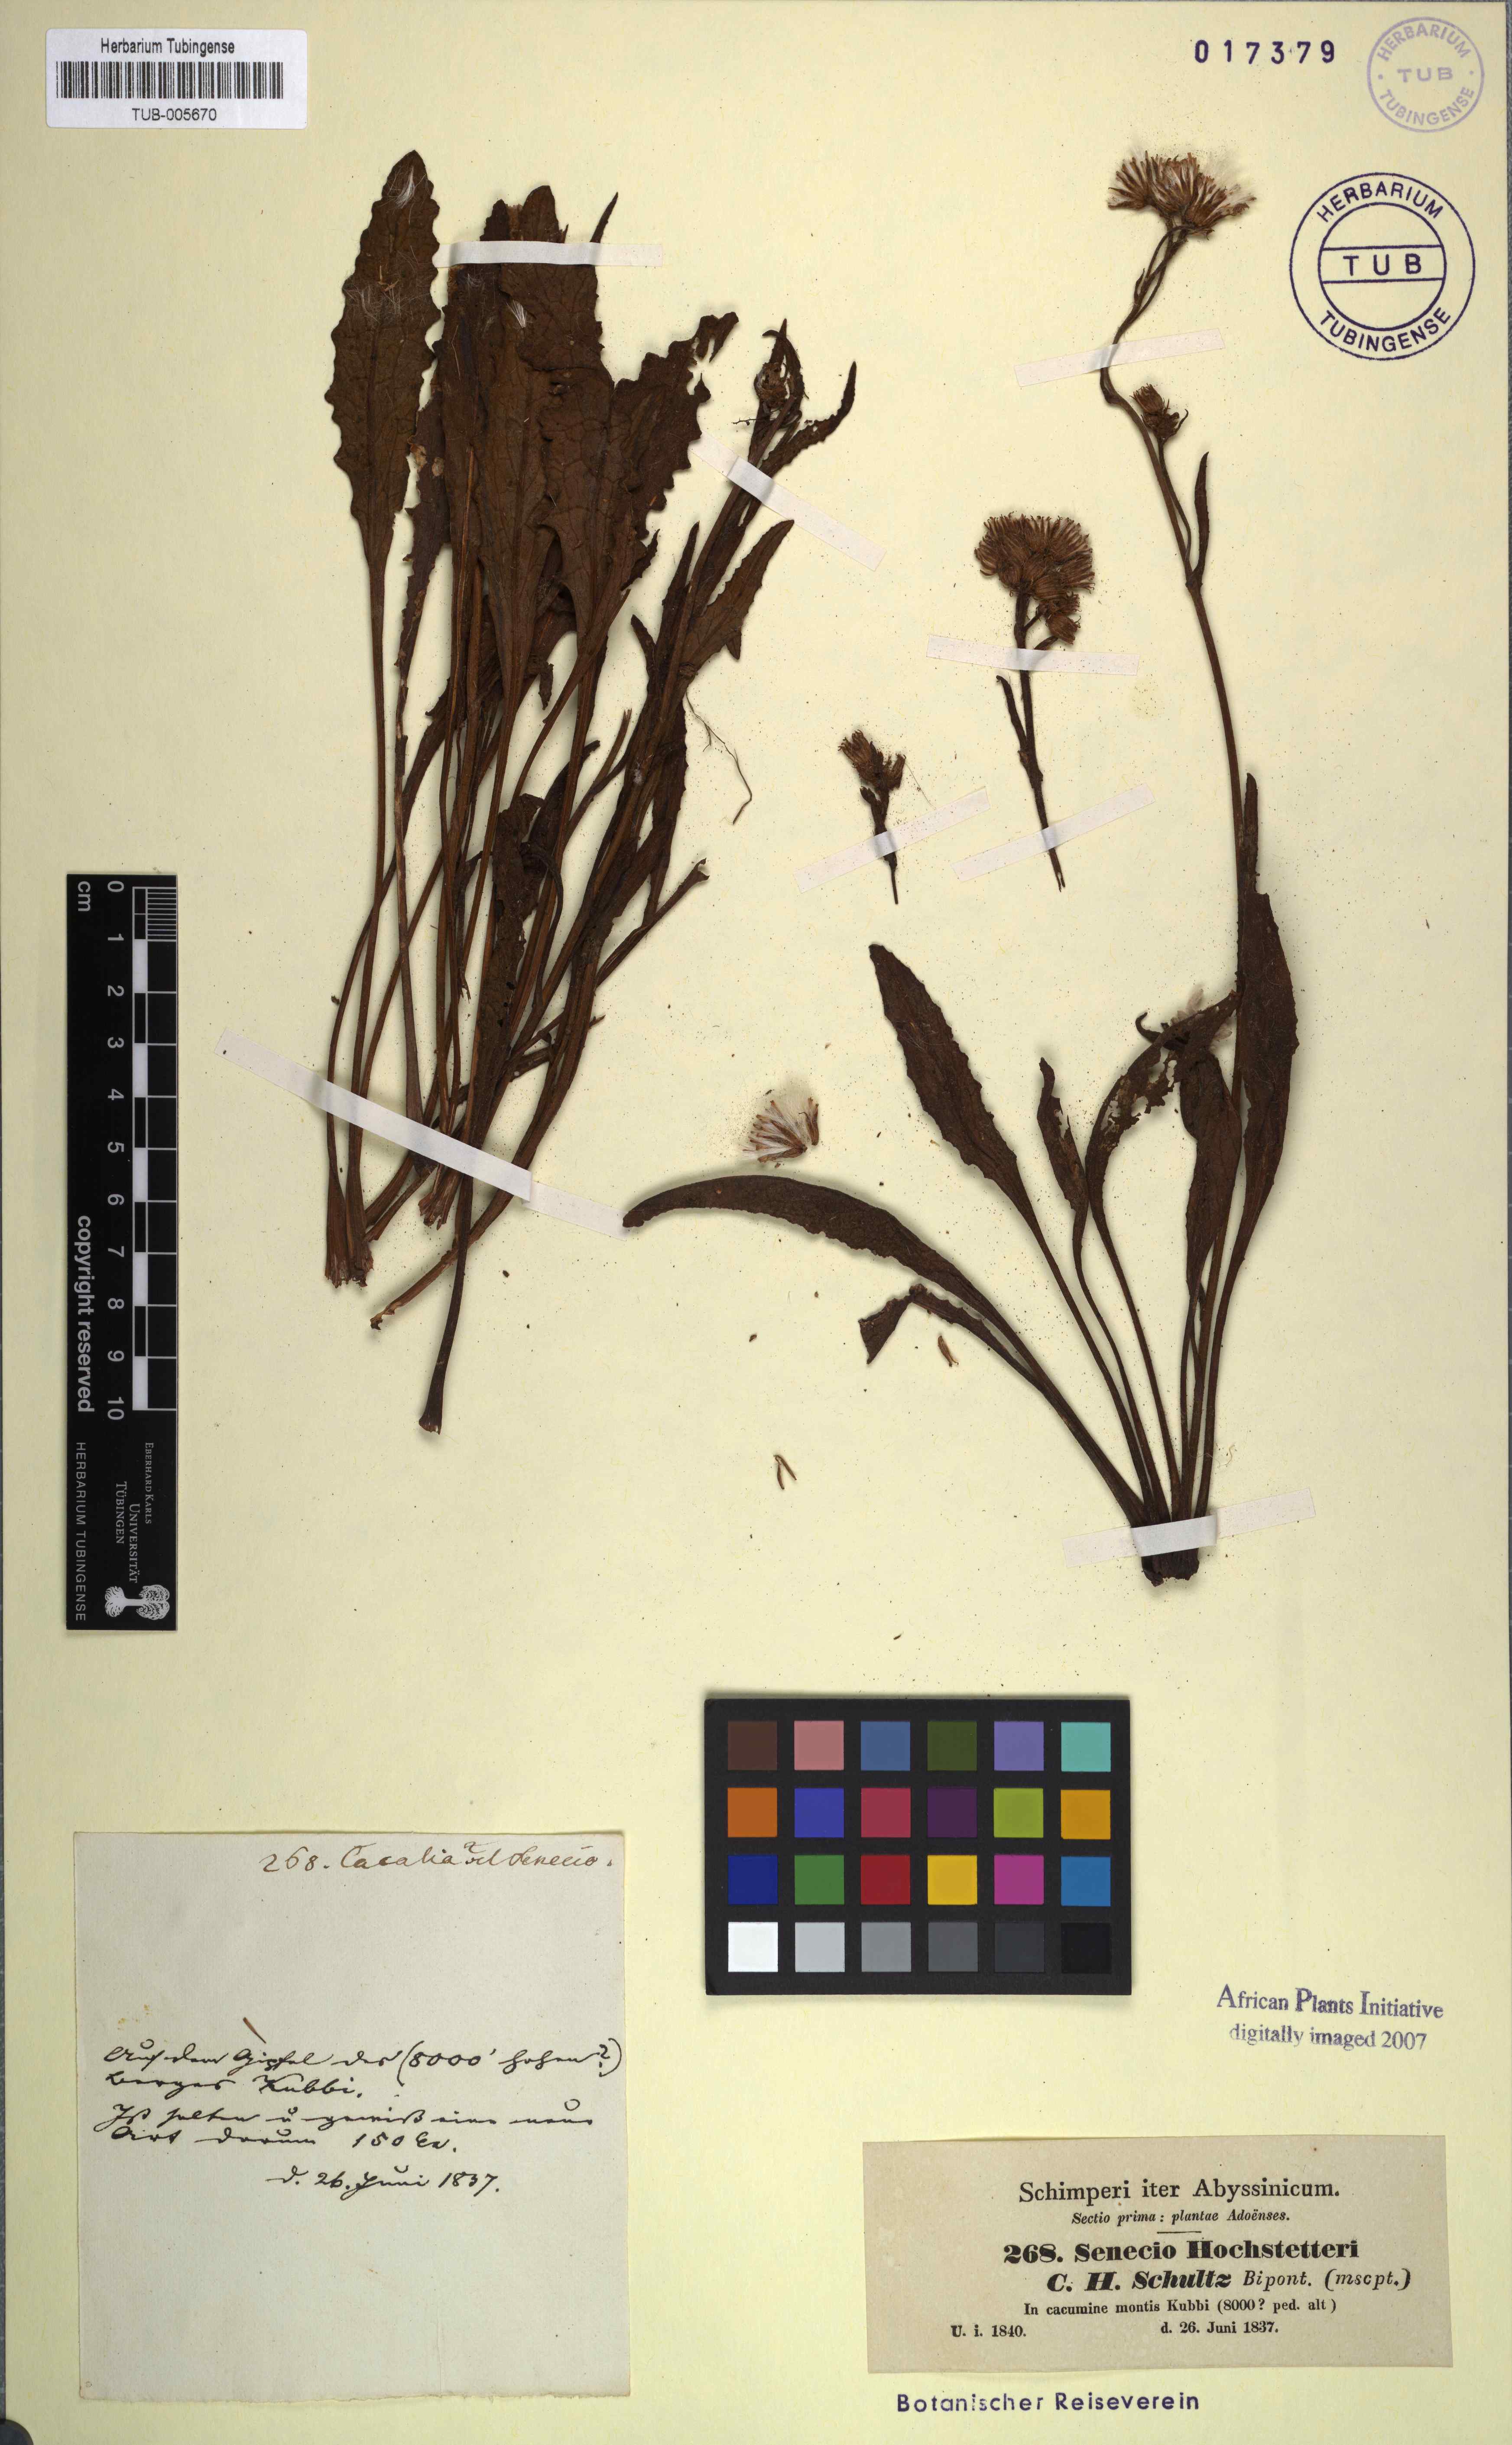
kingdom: Plantae
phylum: Tracheophyta
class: Magnoliopsida
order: Asterales
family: Asteraceae
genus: Senecio
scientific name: Senecio hochstetteri
